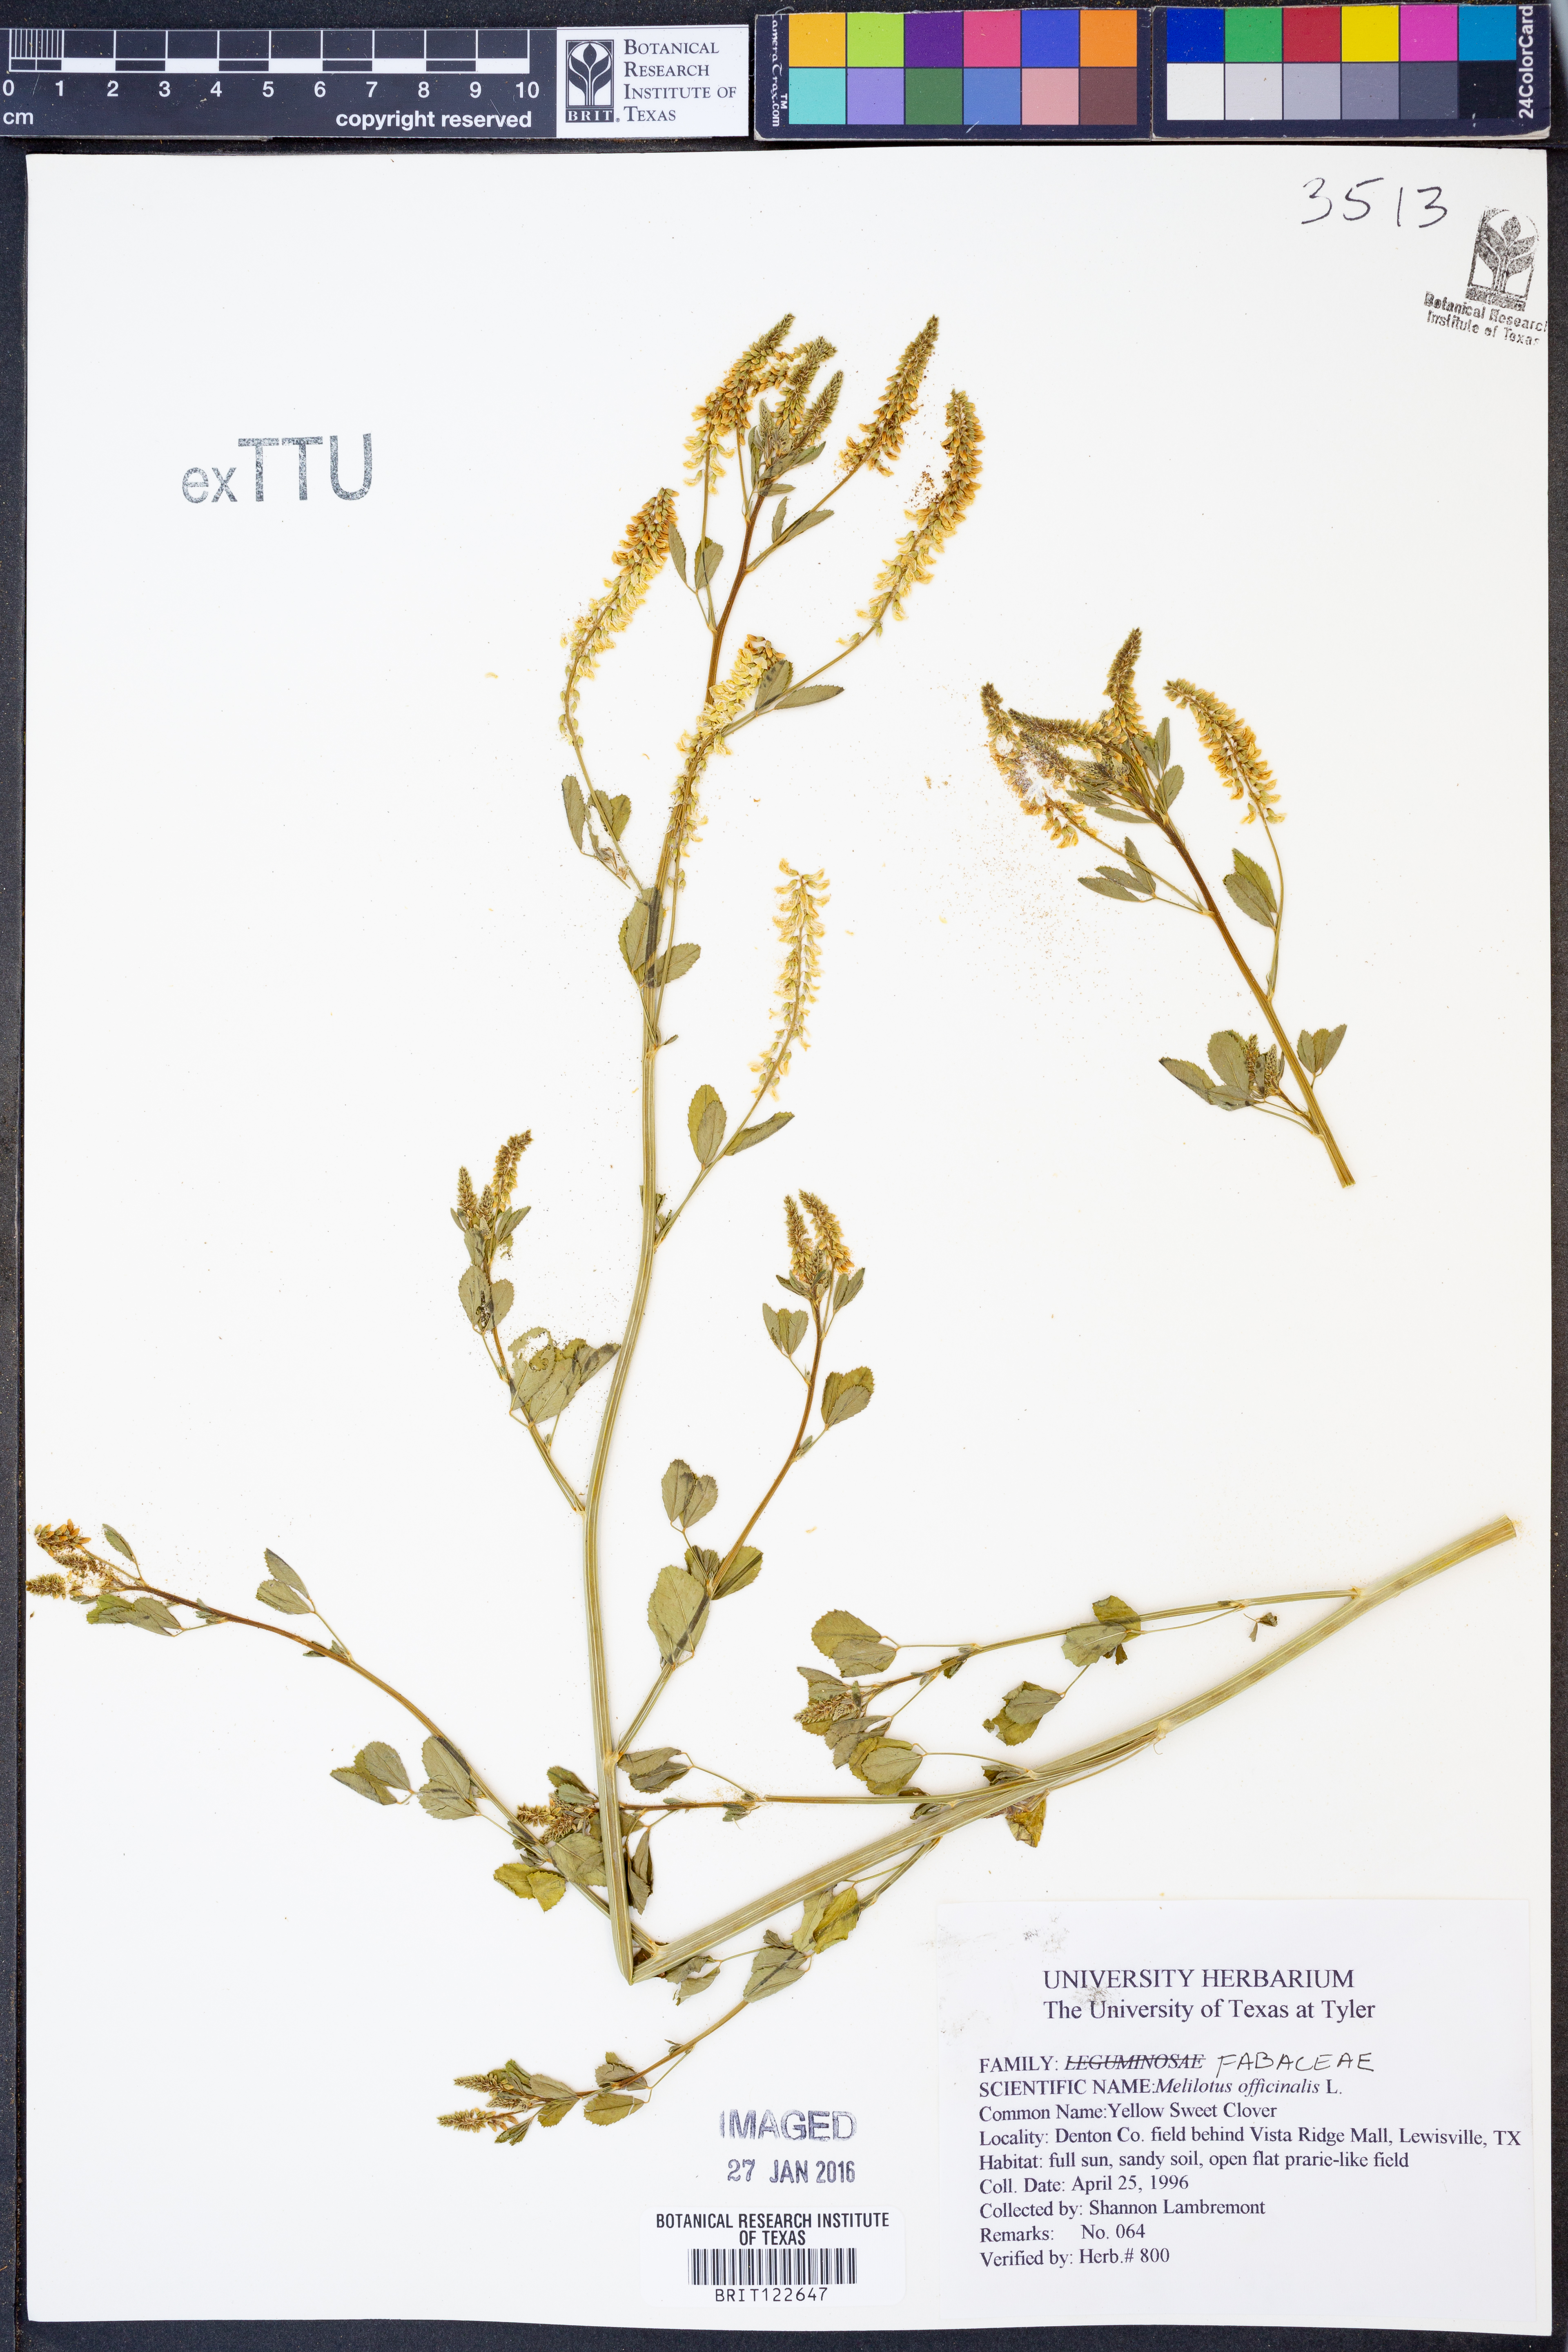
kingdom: Plantae
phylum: Tracheophyta
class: Magnoliopsida
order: Fabales
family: Fabaceae
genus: Melilotus
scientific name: Melilotus officinalis
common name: Sweetclover
